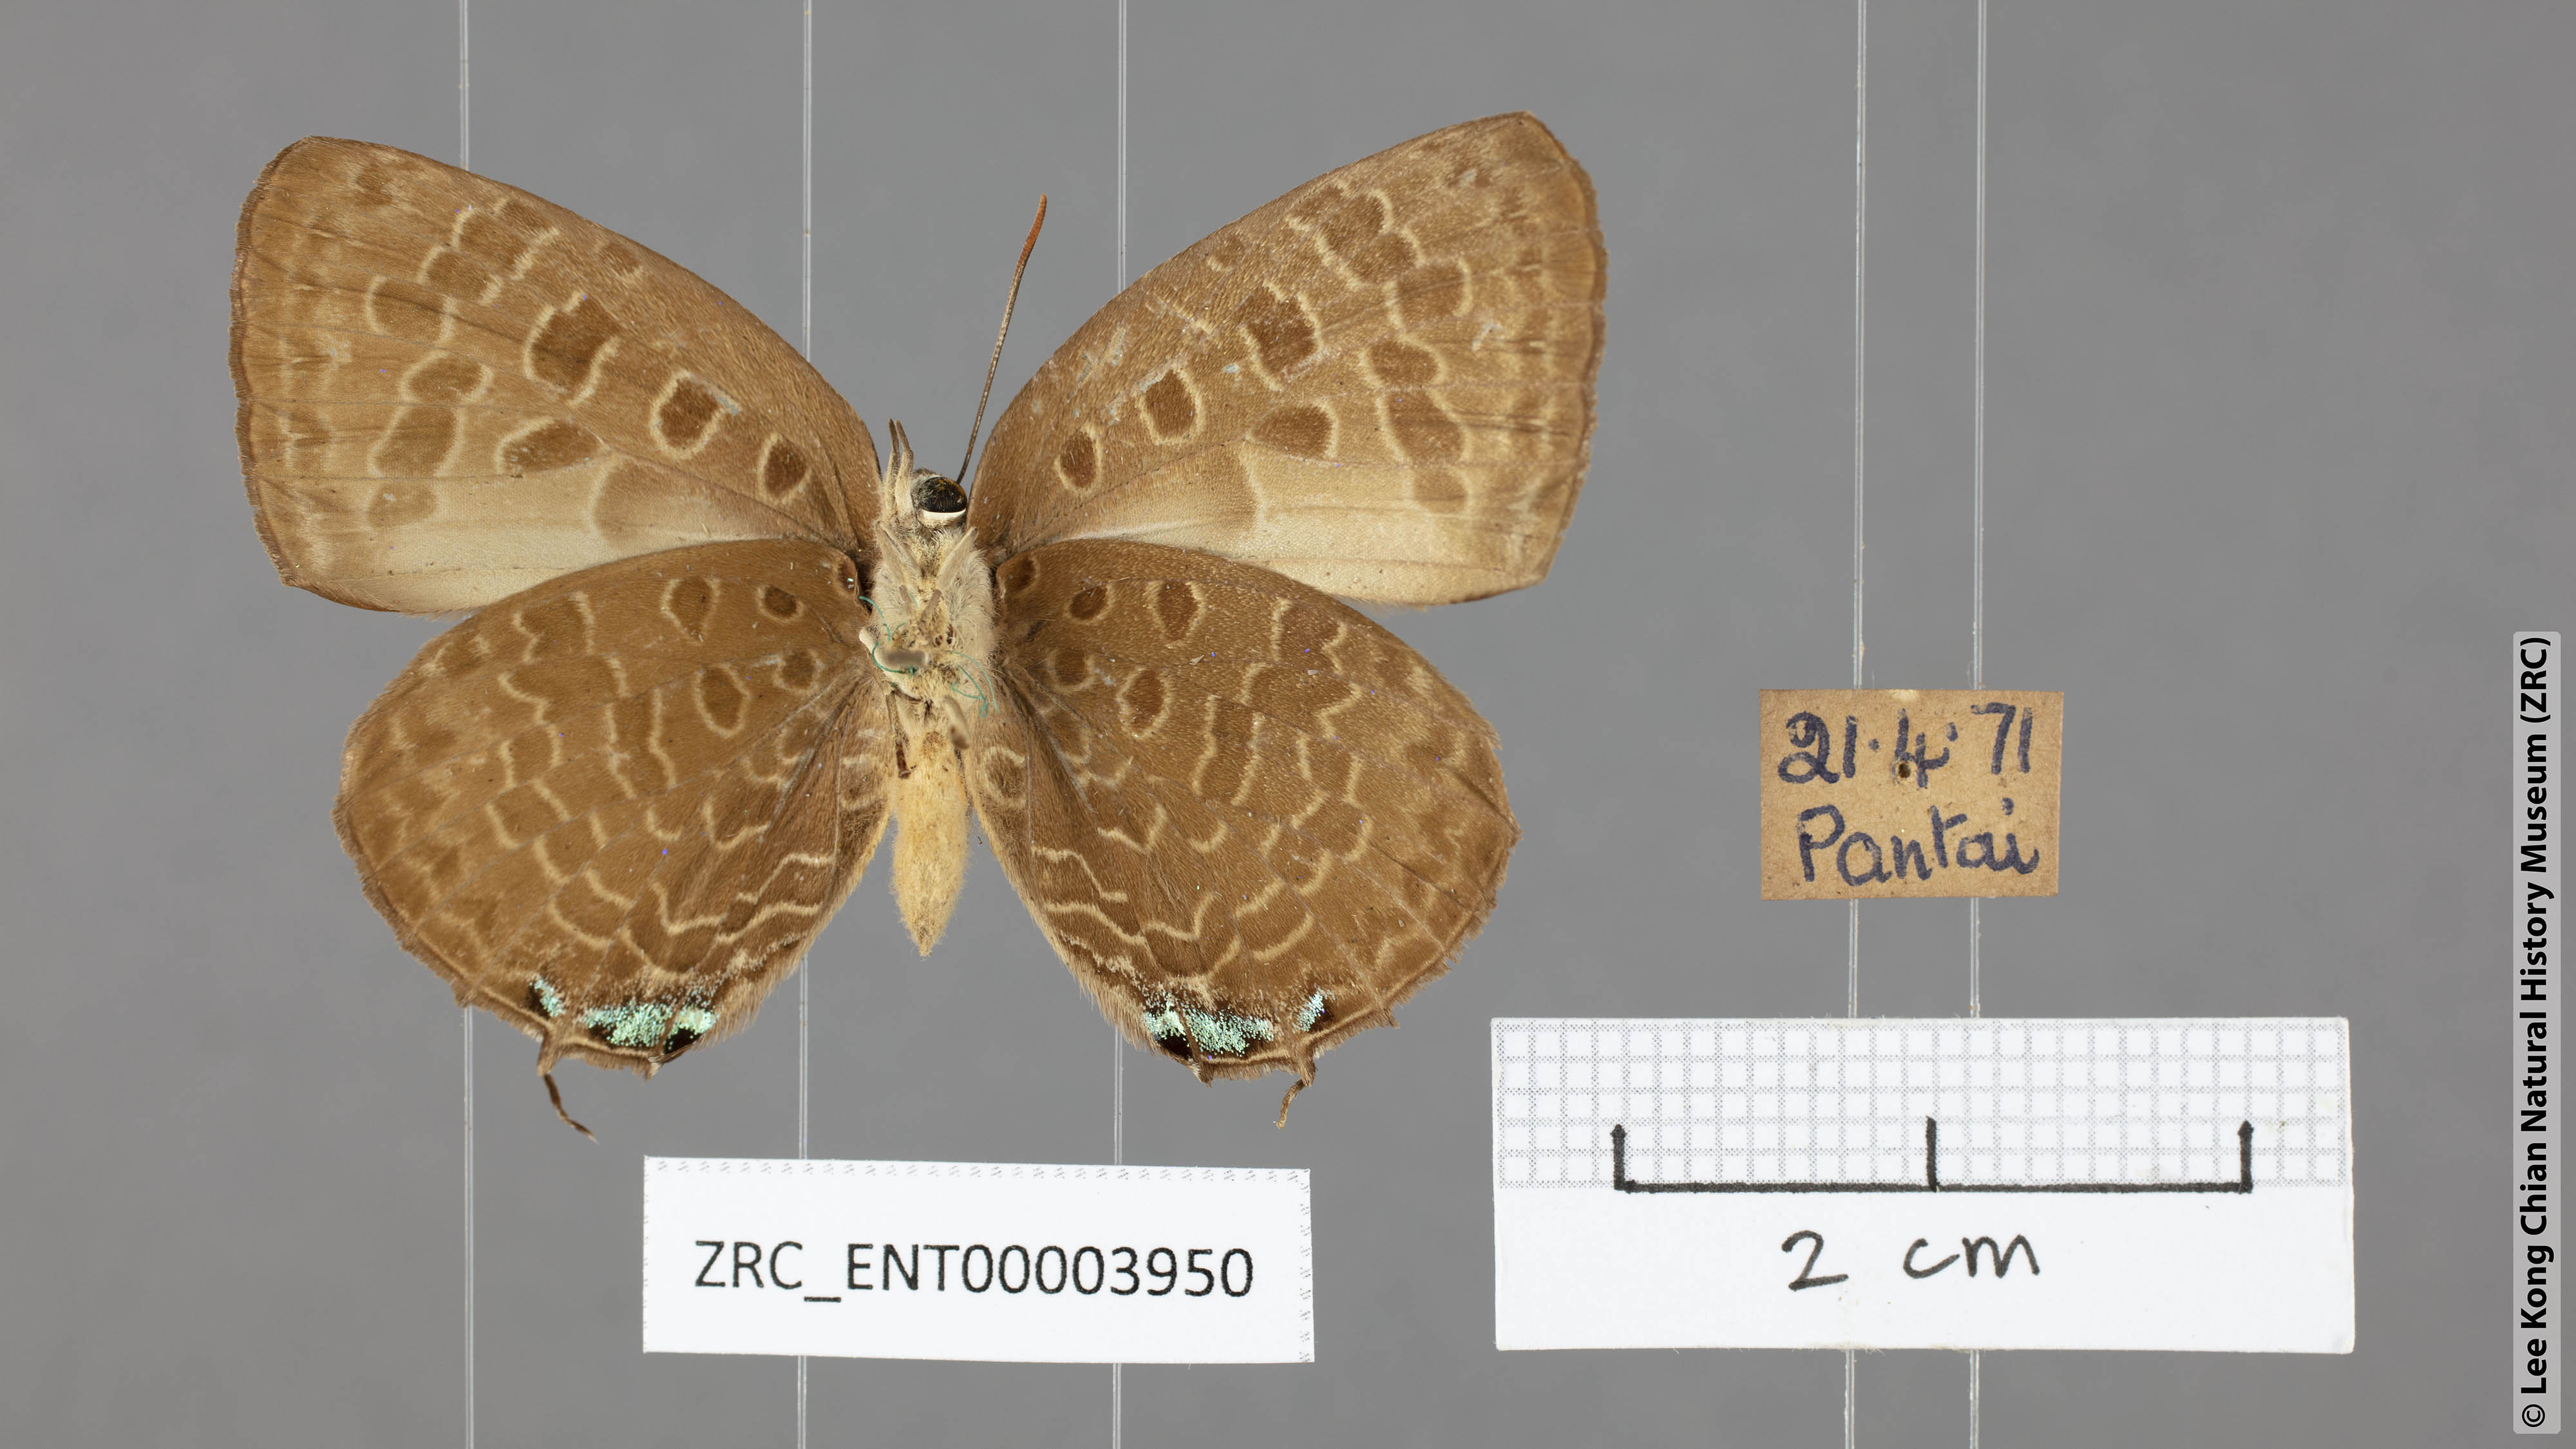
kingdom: Animalia
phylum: Arthropoda
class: Insecta
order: Lepidoptera
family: Lycaenidae
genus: Arhopala
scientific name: Arhopala horsfieldi
